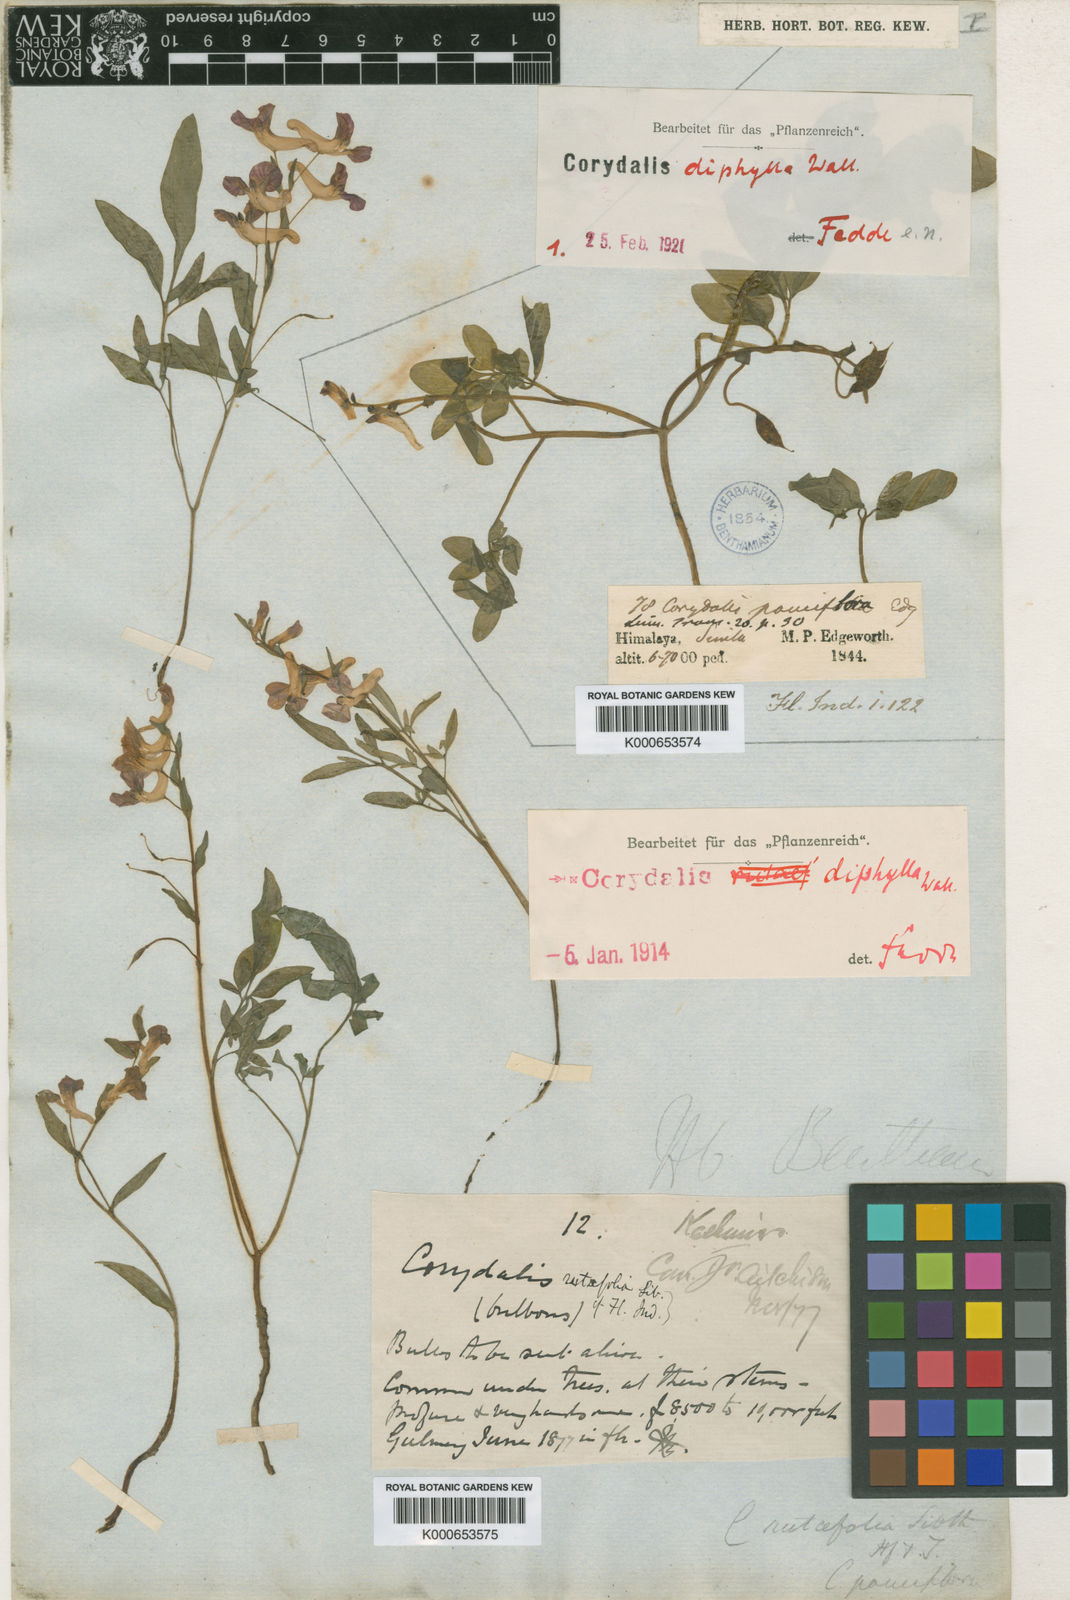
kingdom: Plantae
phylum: Tracheophyta
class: Magnoliopsida
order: Ranunculales
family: Papaveraceae
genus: Corydalis
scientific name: Corydalis rutifolia
